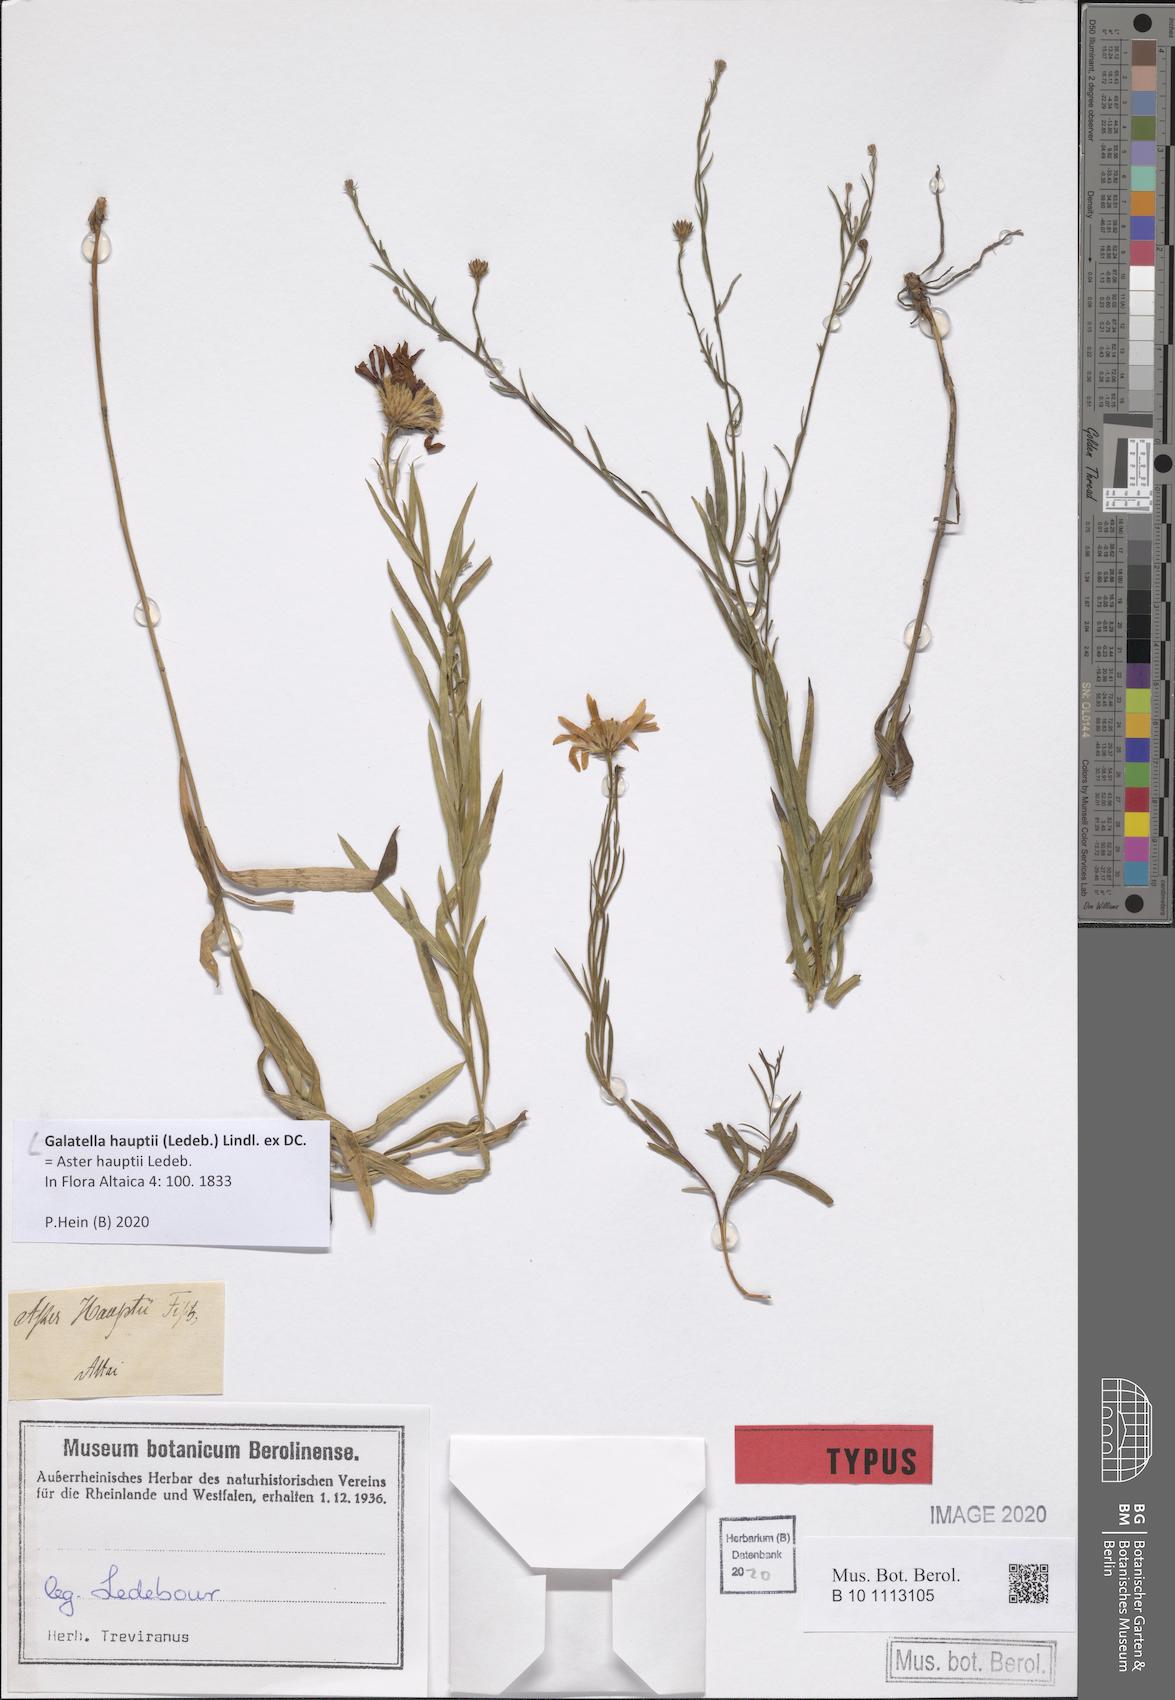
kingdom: Plantae
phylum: Tracheophyta
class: Magnoliopsida
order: Asterales
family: Asteraceae
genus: Galatella
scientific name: Galatella hauptii
